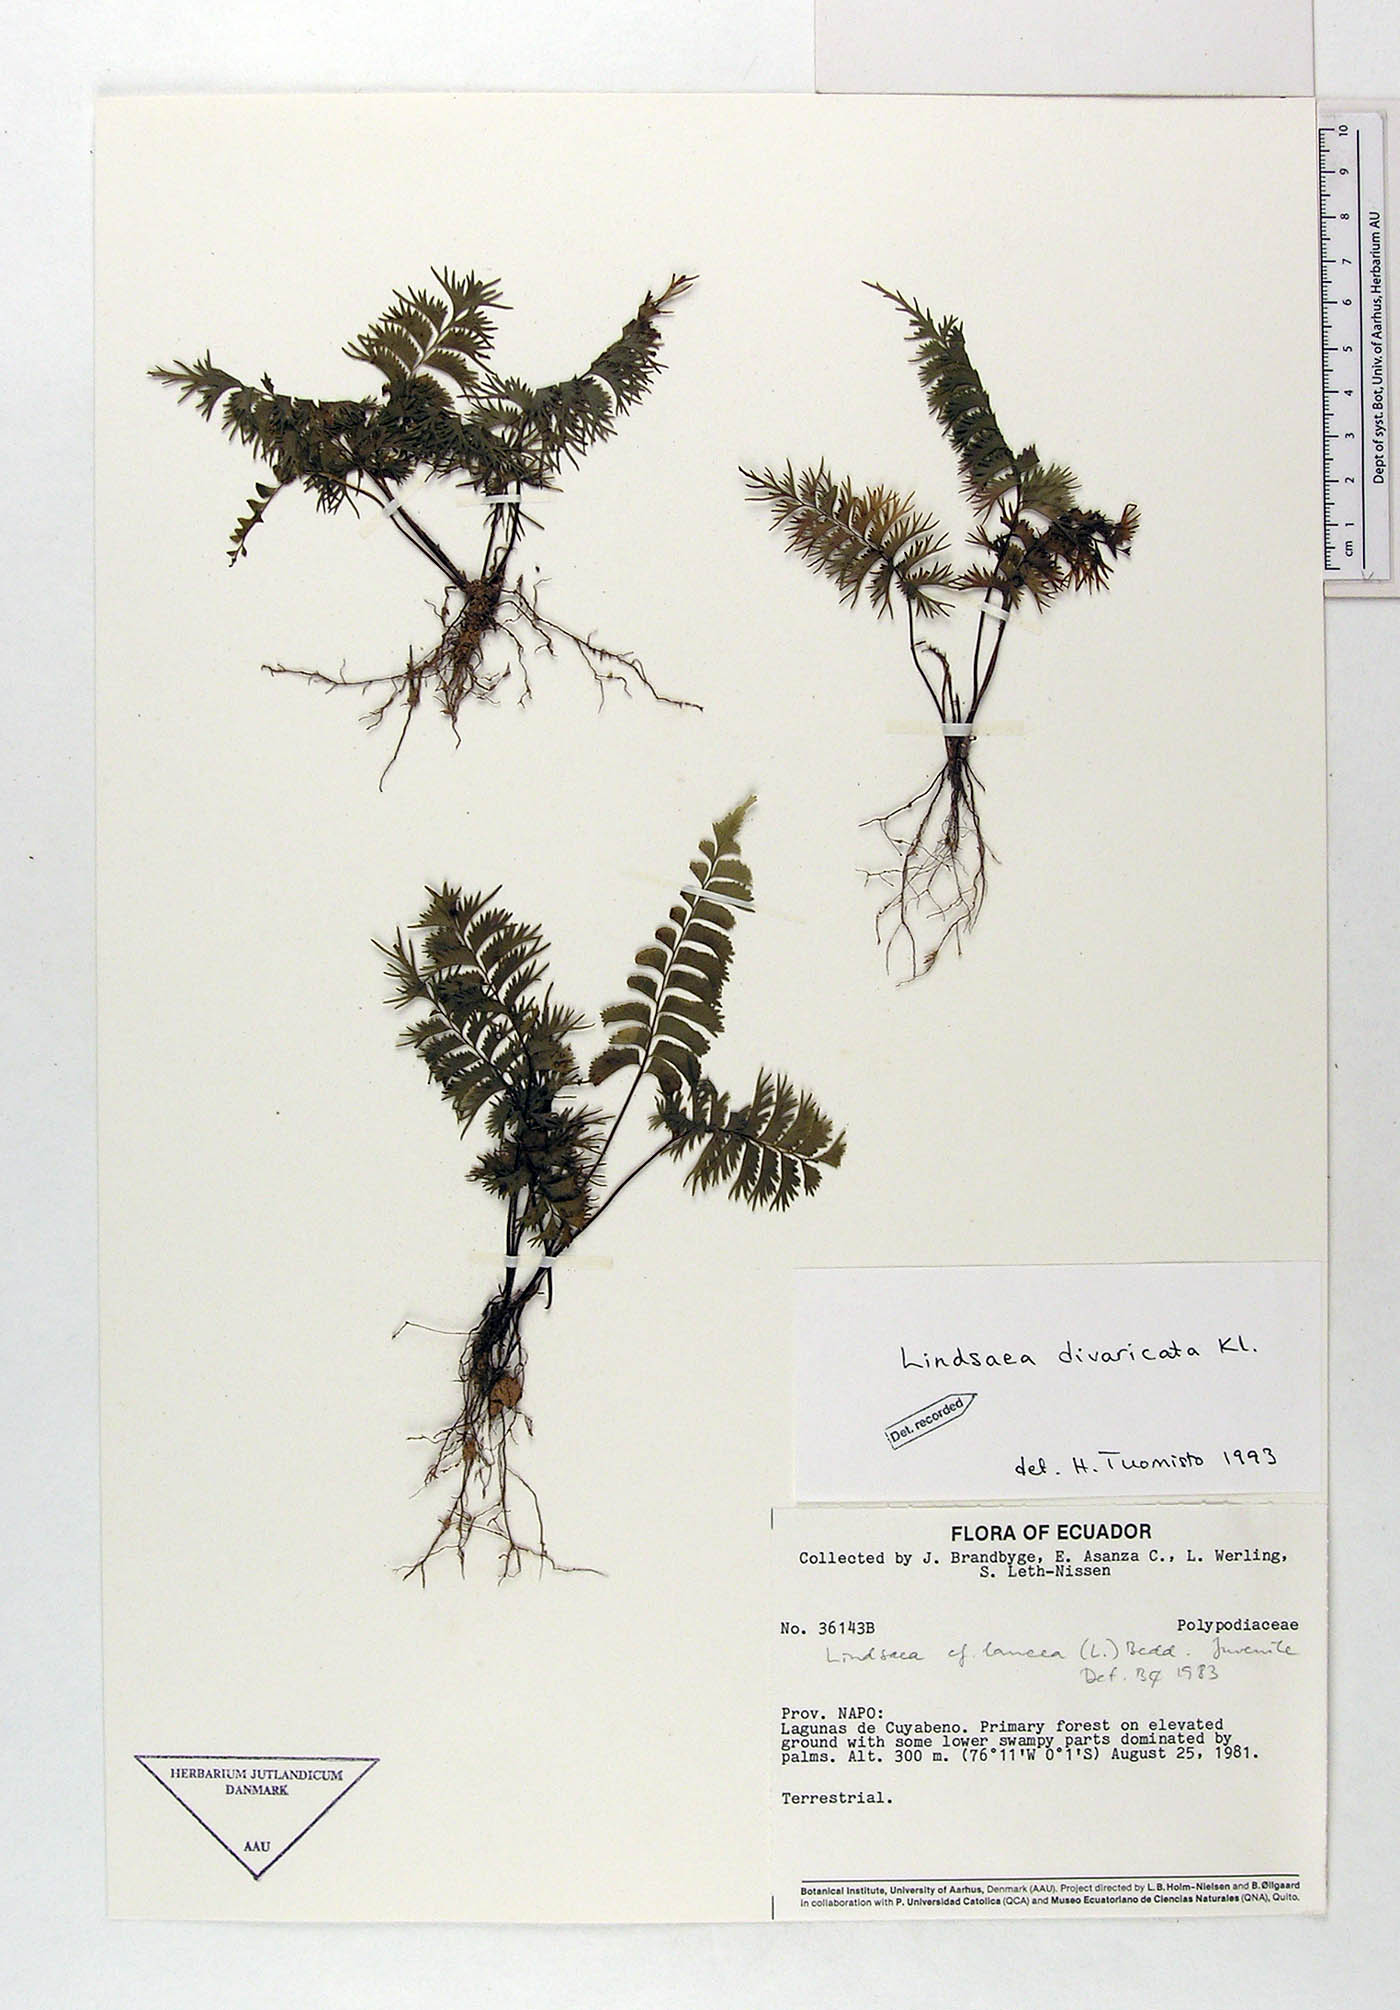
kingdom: Plantae
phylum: Tracheophyta
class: Polypodiopsida
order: Polypodiales
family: Lindsaeaceae
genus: Lindsaea
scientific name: Lindsaea divaricata
